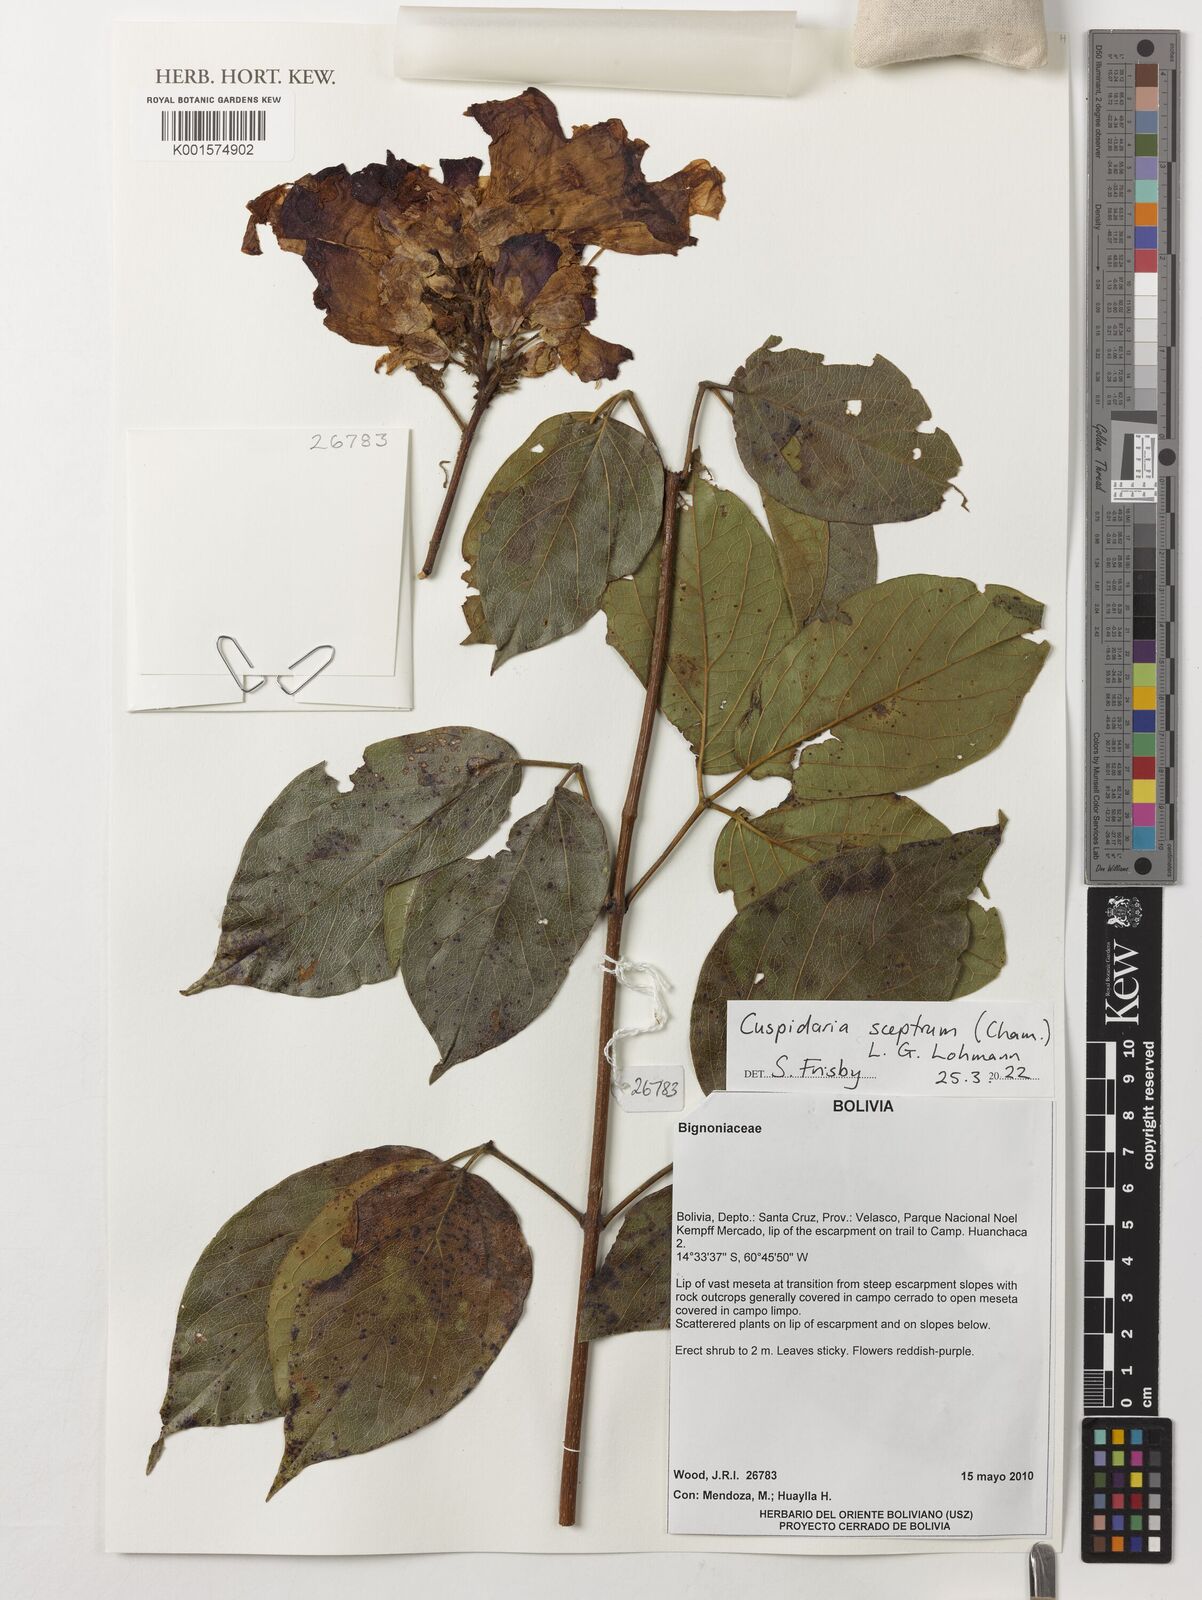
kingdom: Plantae
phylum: Tracheophyta
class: Magnoliopsida
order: Lamiales
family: Bignoniaceae
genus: Cuspidaria
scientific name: Cuspidaria sceptrum
